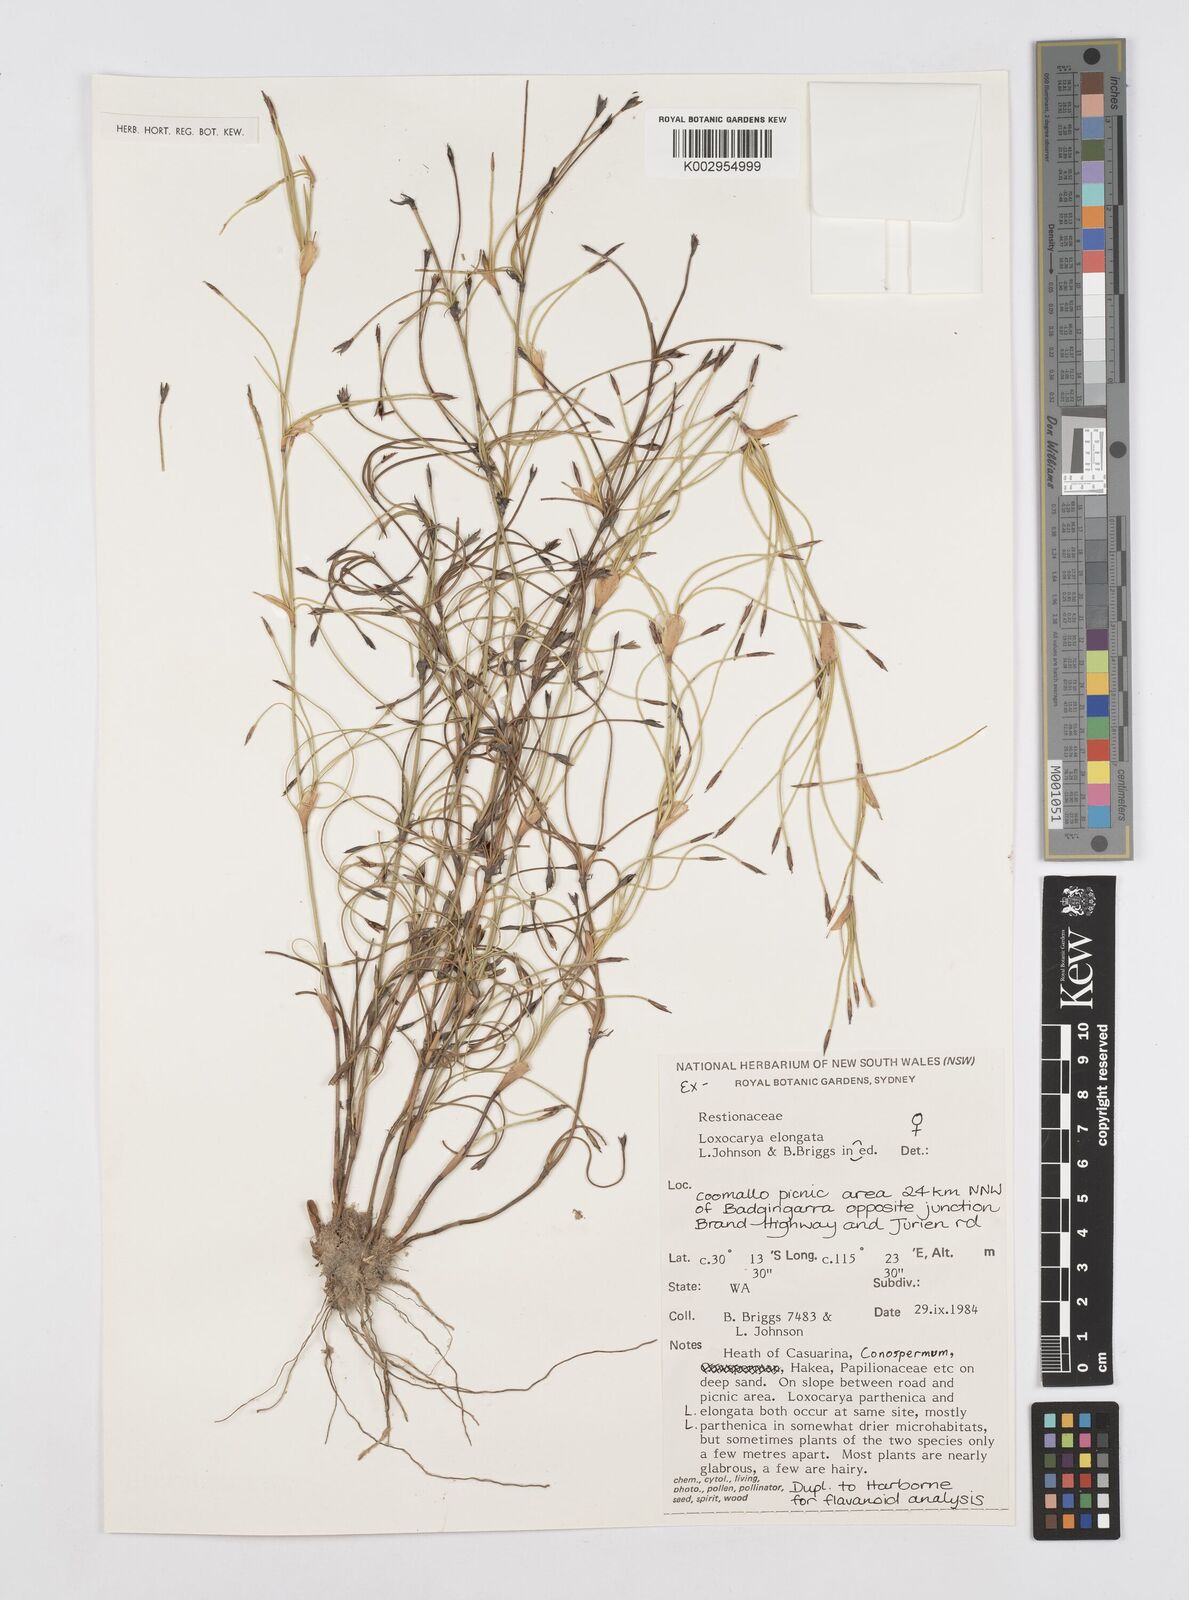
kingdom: Plantae
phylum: Tracheophyta
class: Liliopsida
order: Poales
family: Restionaceae
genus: Desmocladus
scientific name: Desmocladus elongatus
